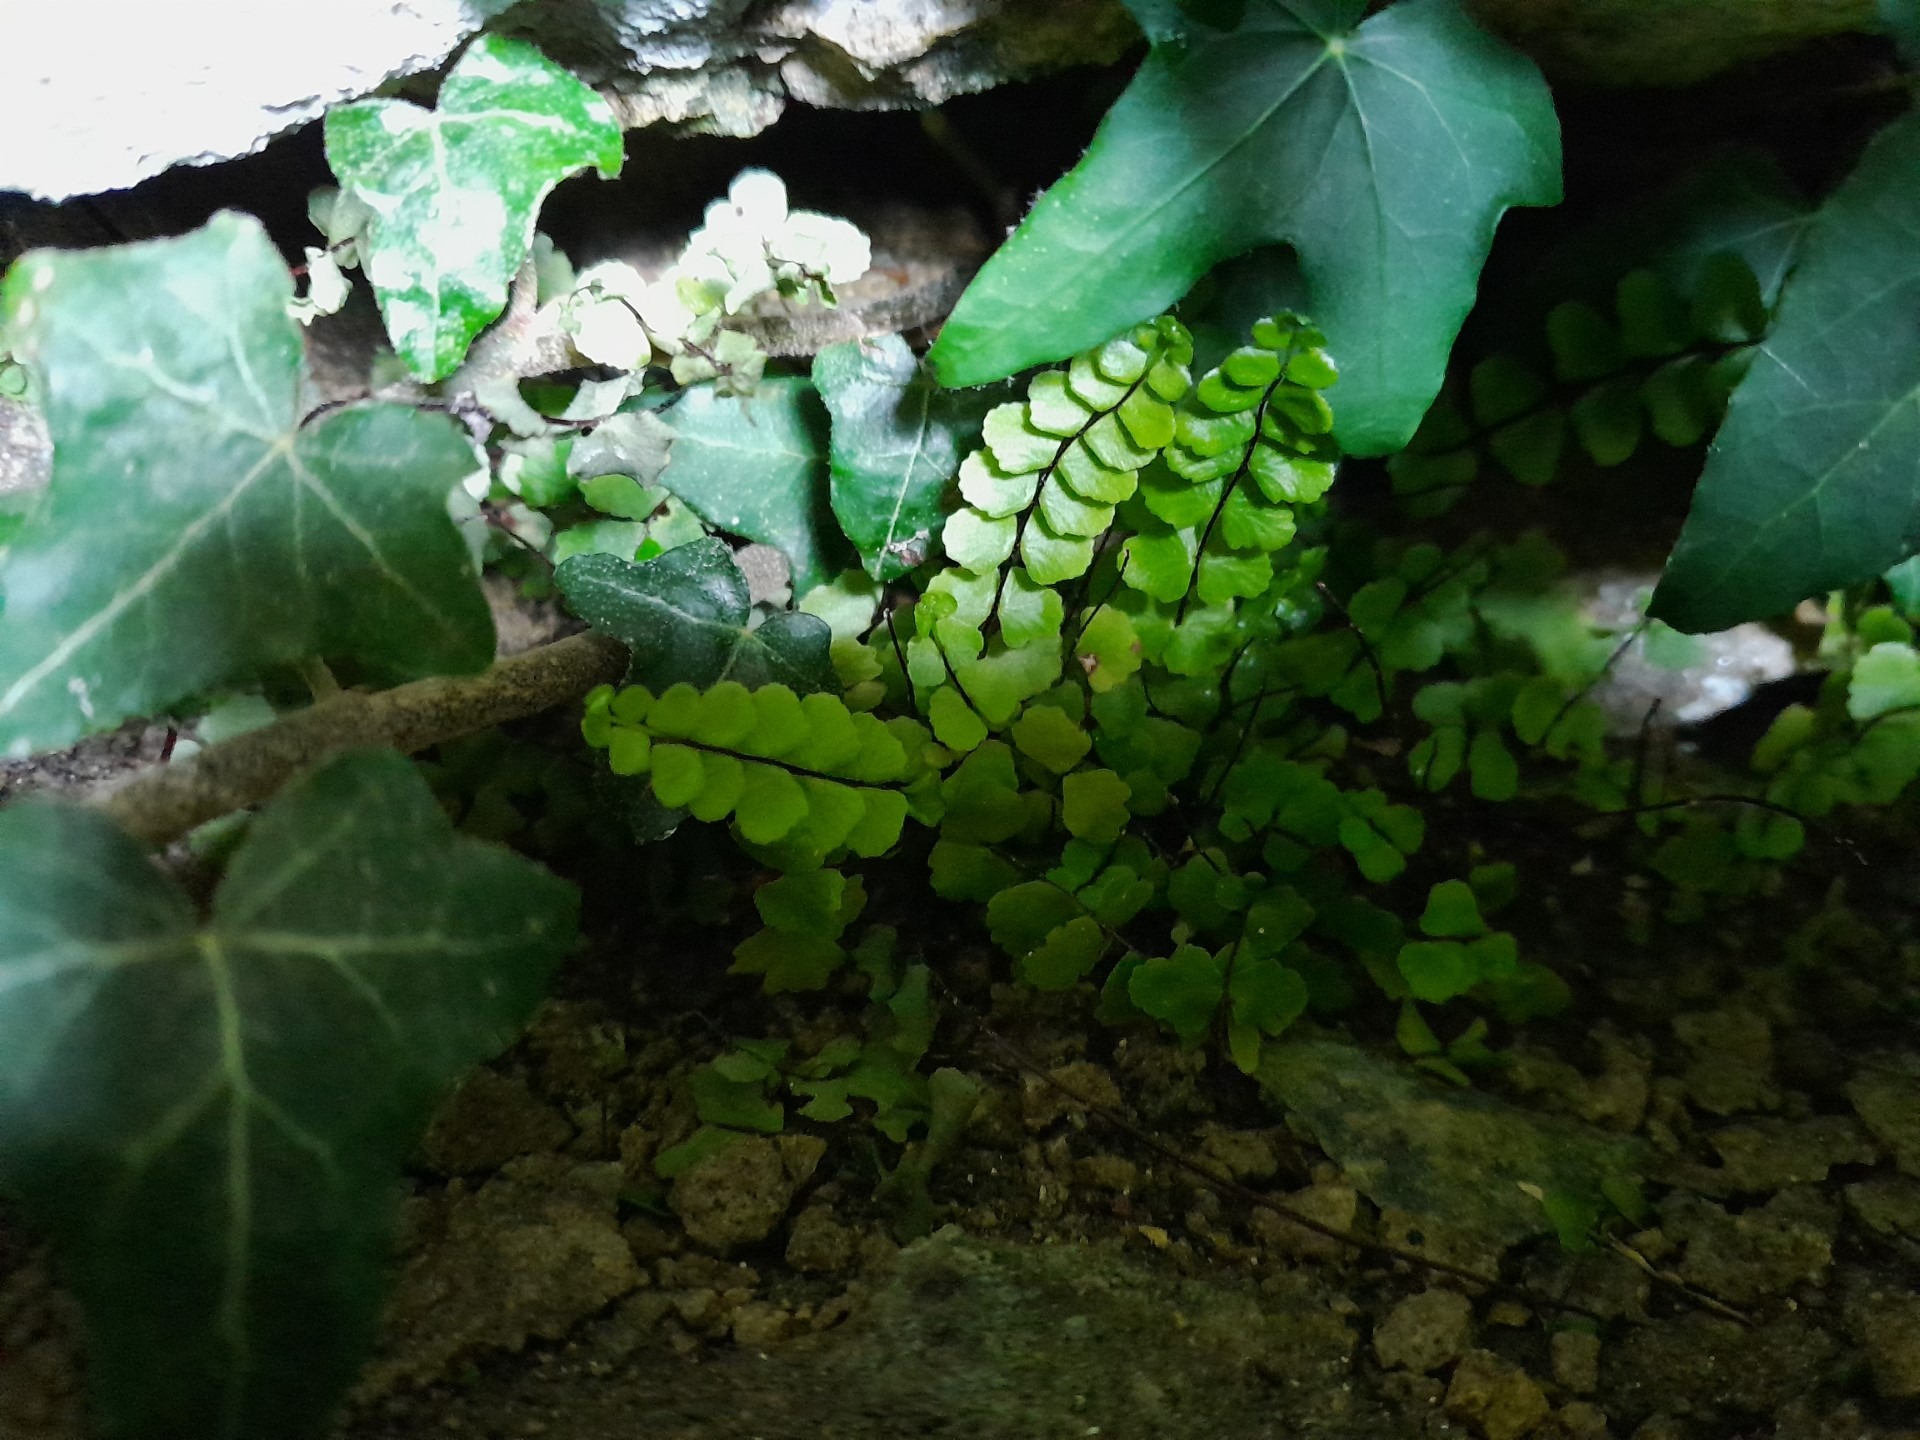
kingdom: Plantae
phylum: Tracheophyta
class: Polypodiopsida
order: Polypodiales
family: Aspleniaceae
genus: Asplenium
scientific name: Asplenium trichomanes
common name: Rundfinnet radeløv
